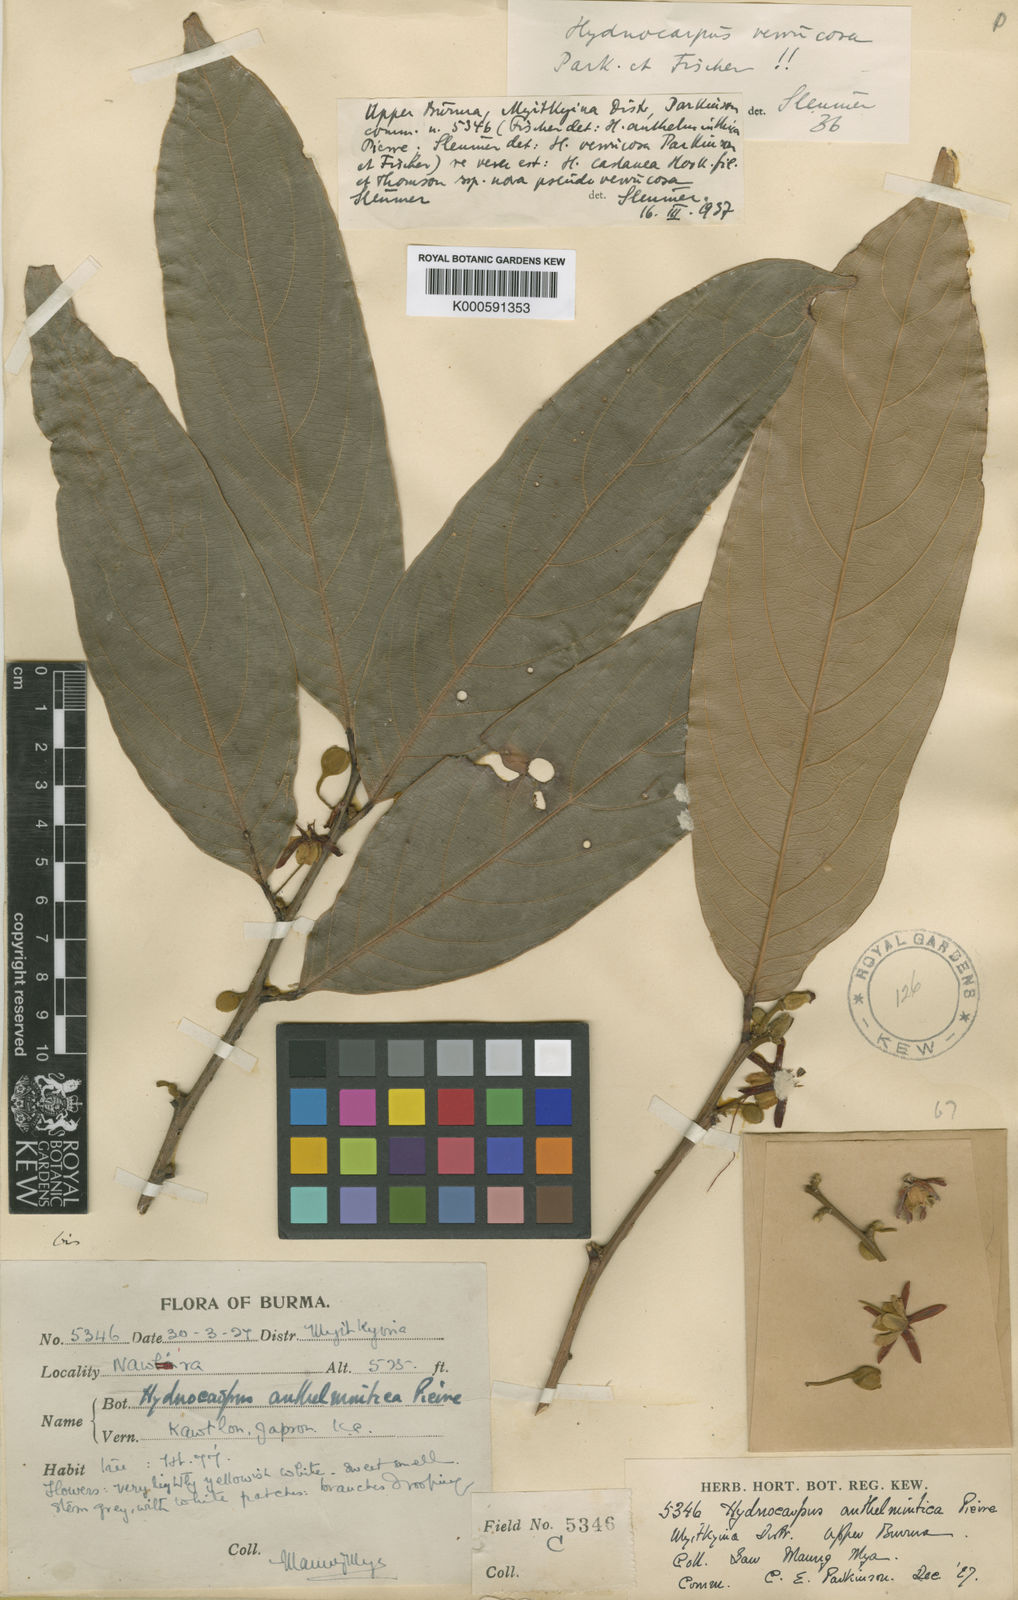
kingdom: Plantae
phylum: Tracheophyta
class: Magnoliopsida
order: Malpighiales
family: Achariaceae
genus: Hydnocarpus
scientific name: Hydnocarpus verrucosus
